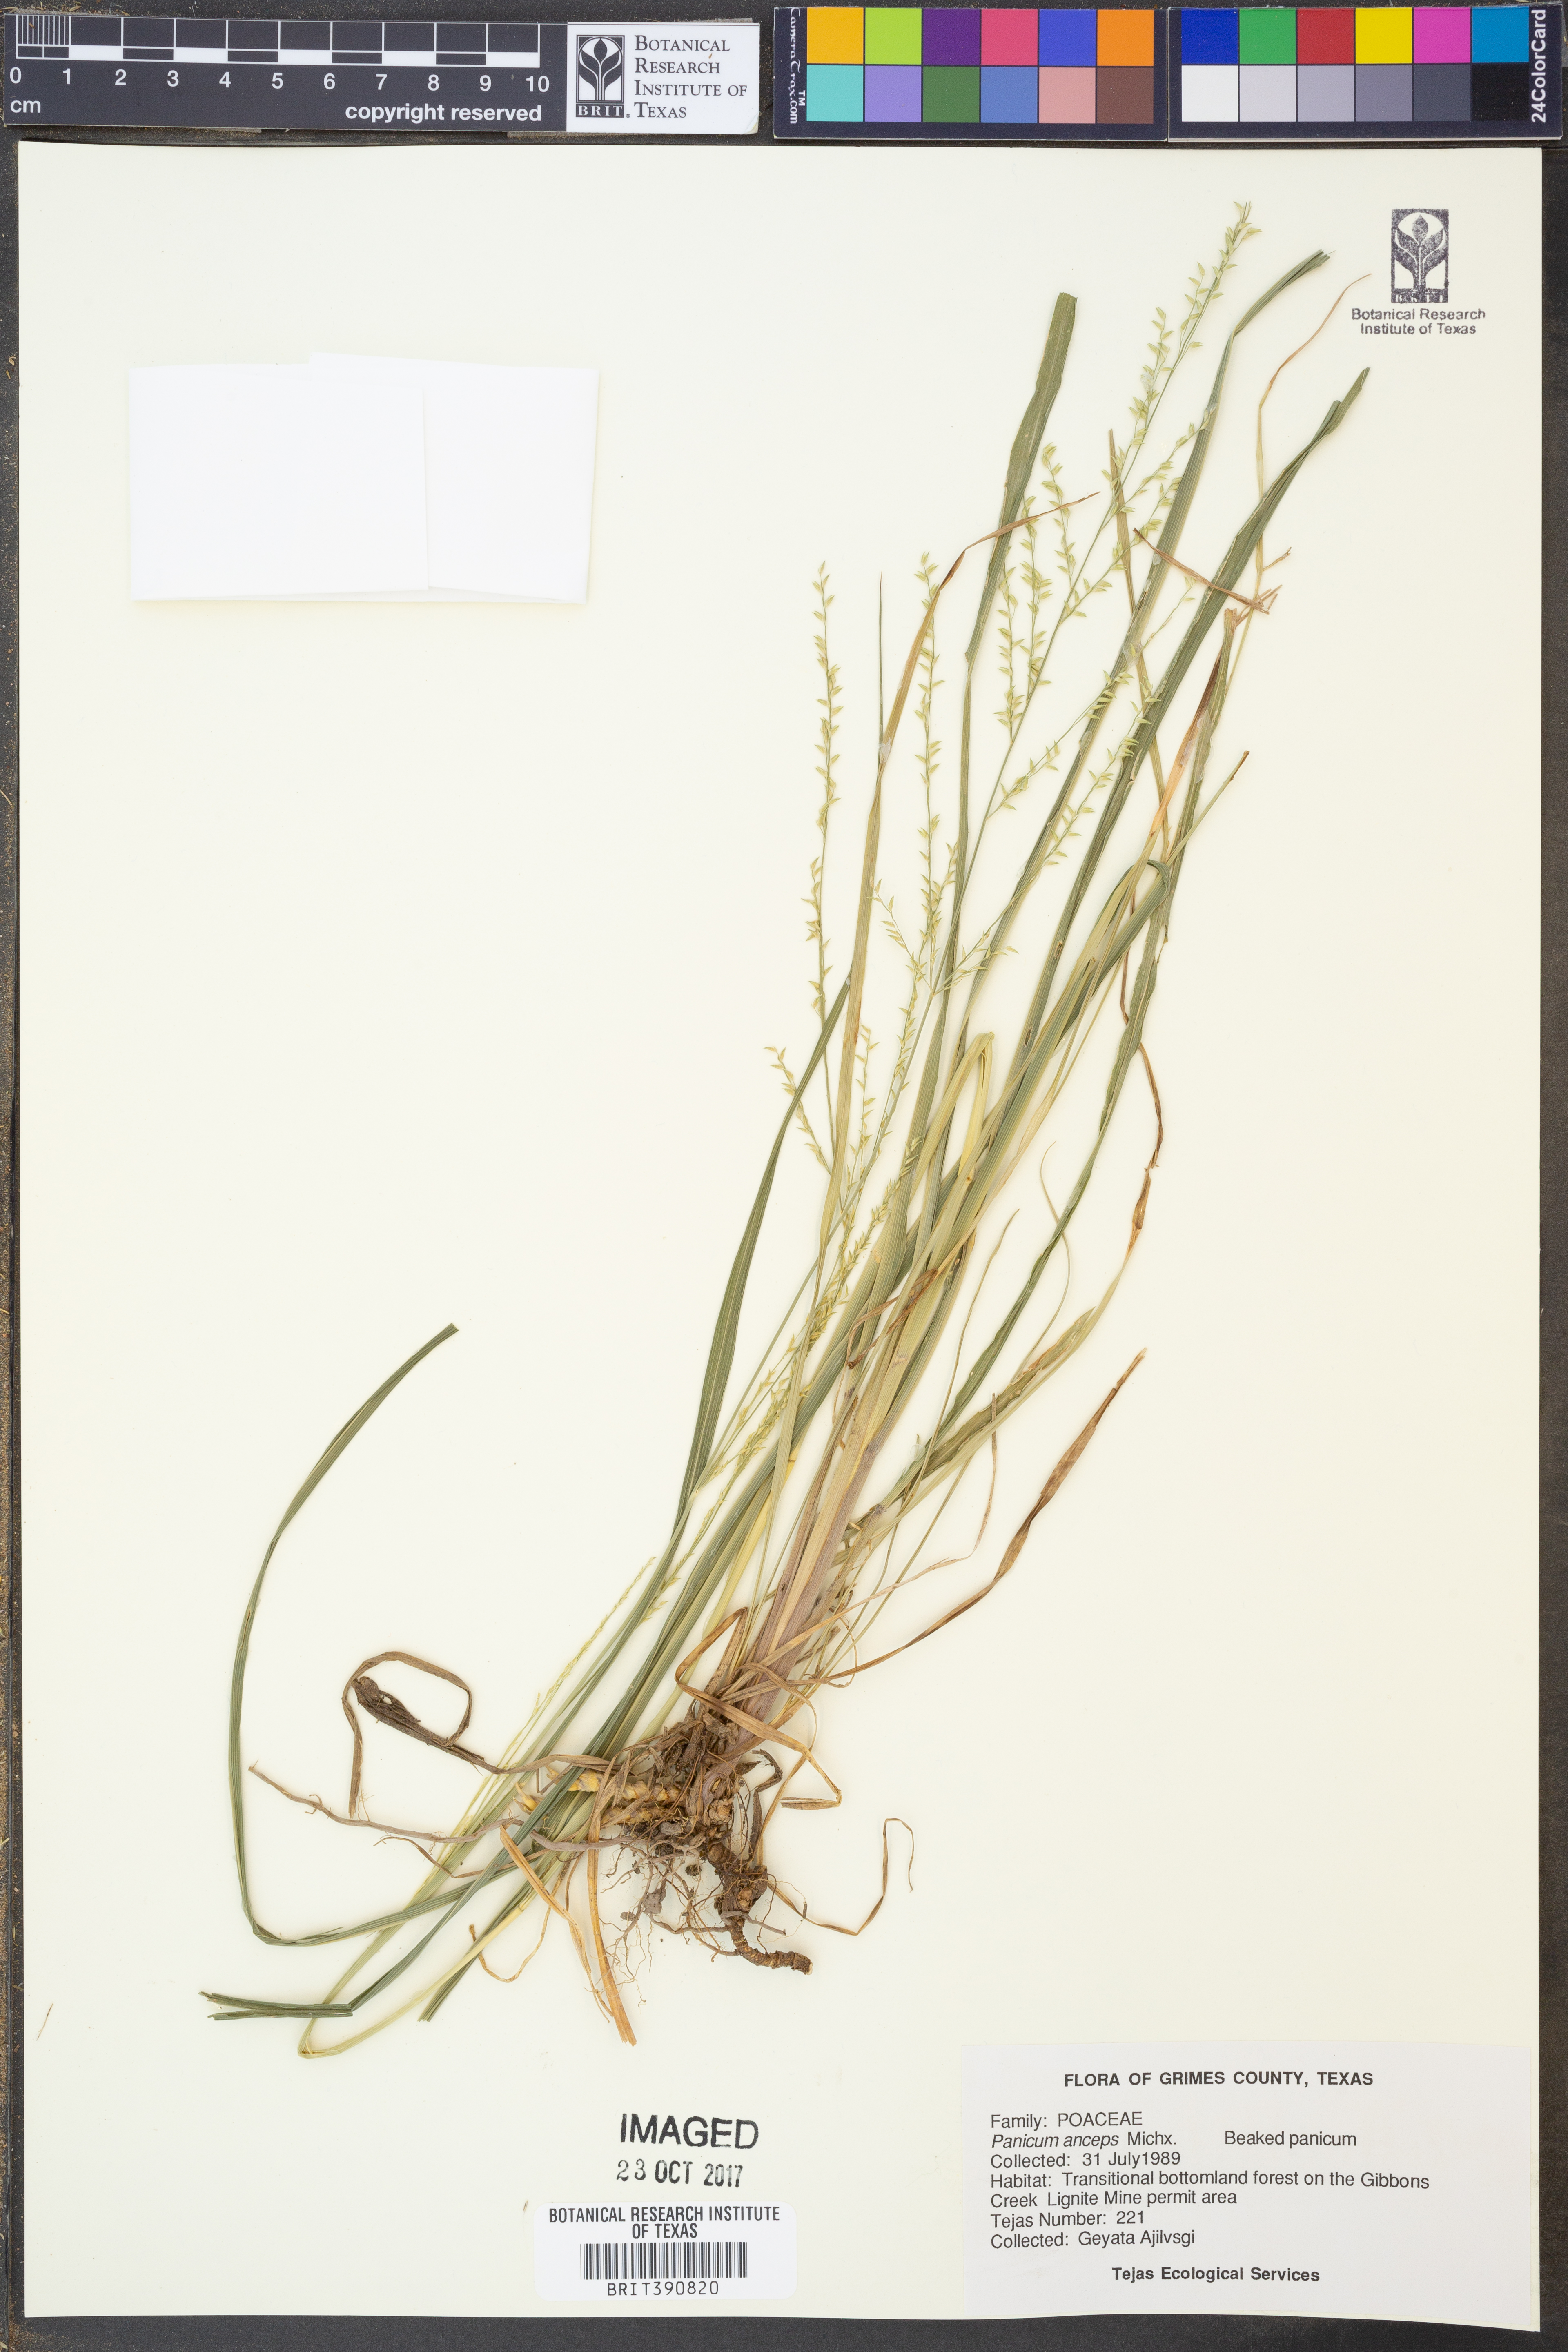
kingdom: Plantae
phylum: Tracheophyta
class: Liliopsida
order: Poales
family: Poaceae
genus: Coleataenia
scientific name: Coleataenia anceps
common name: Beaked panic grass
